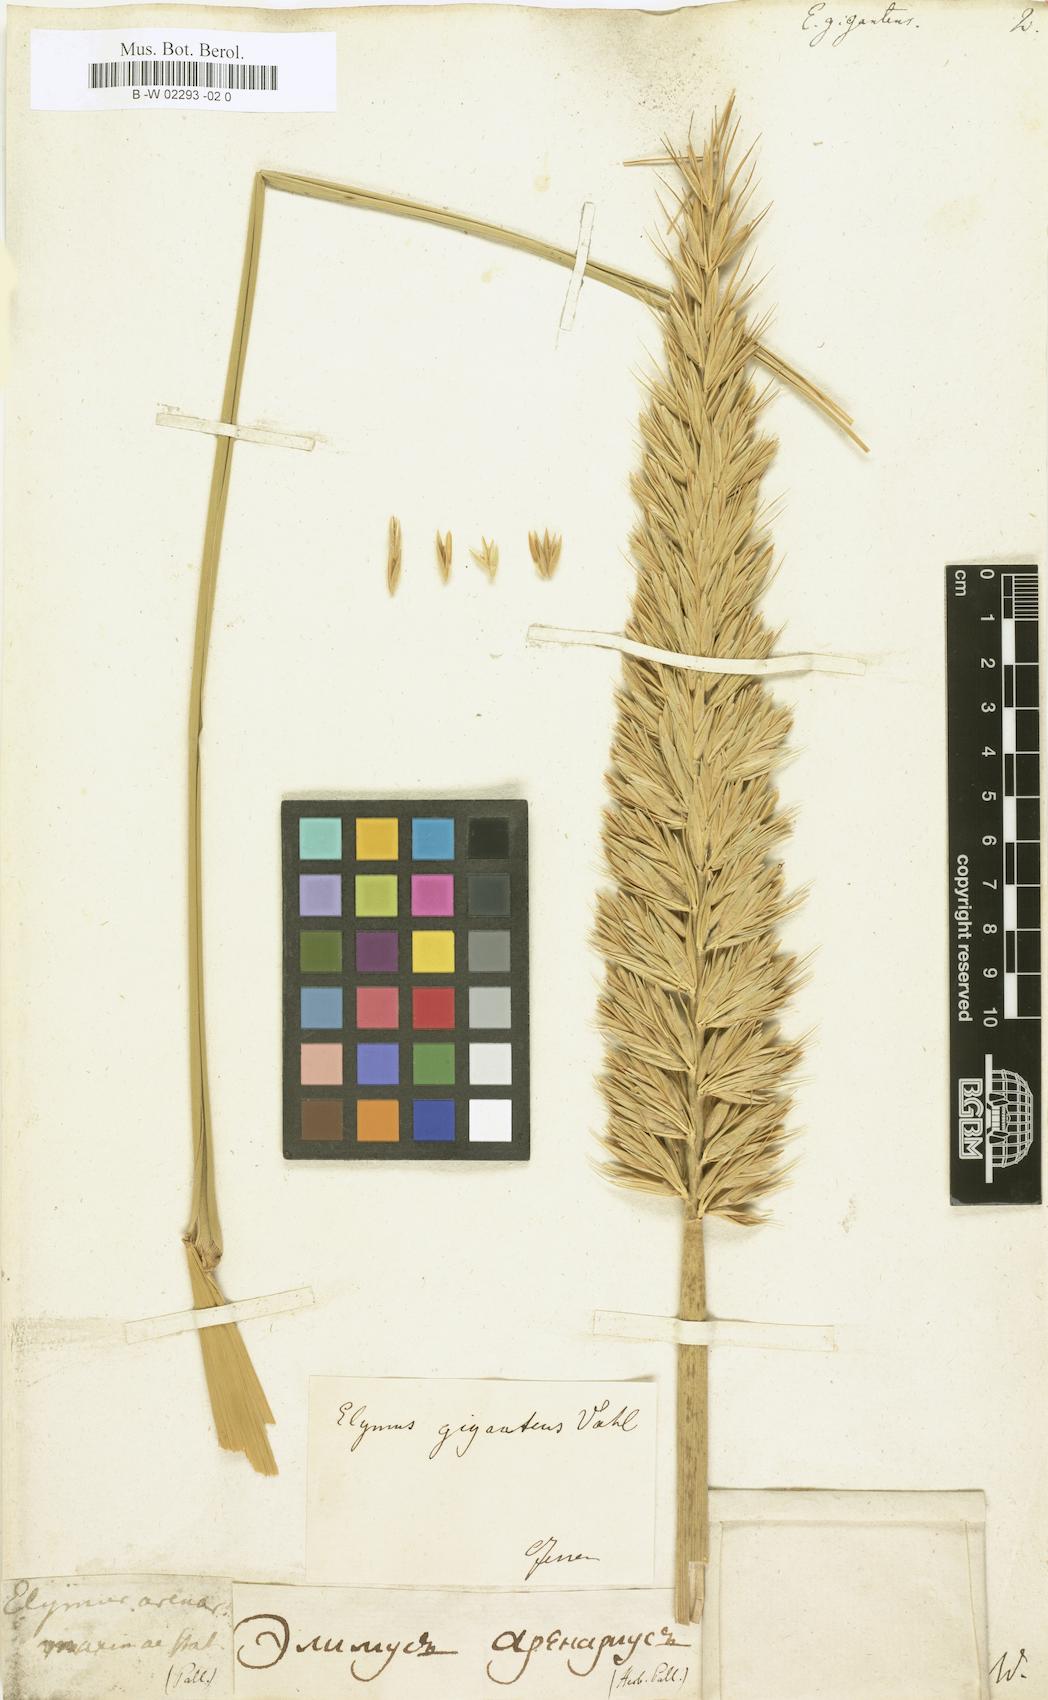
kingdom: Plantae
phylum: Tracheophyta
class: Liliopsida
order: Poales
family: Poaceae
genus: Leymus
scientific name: Leymus racemosus
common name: Mammoth wildrye
